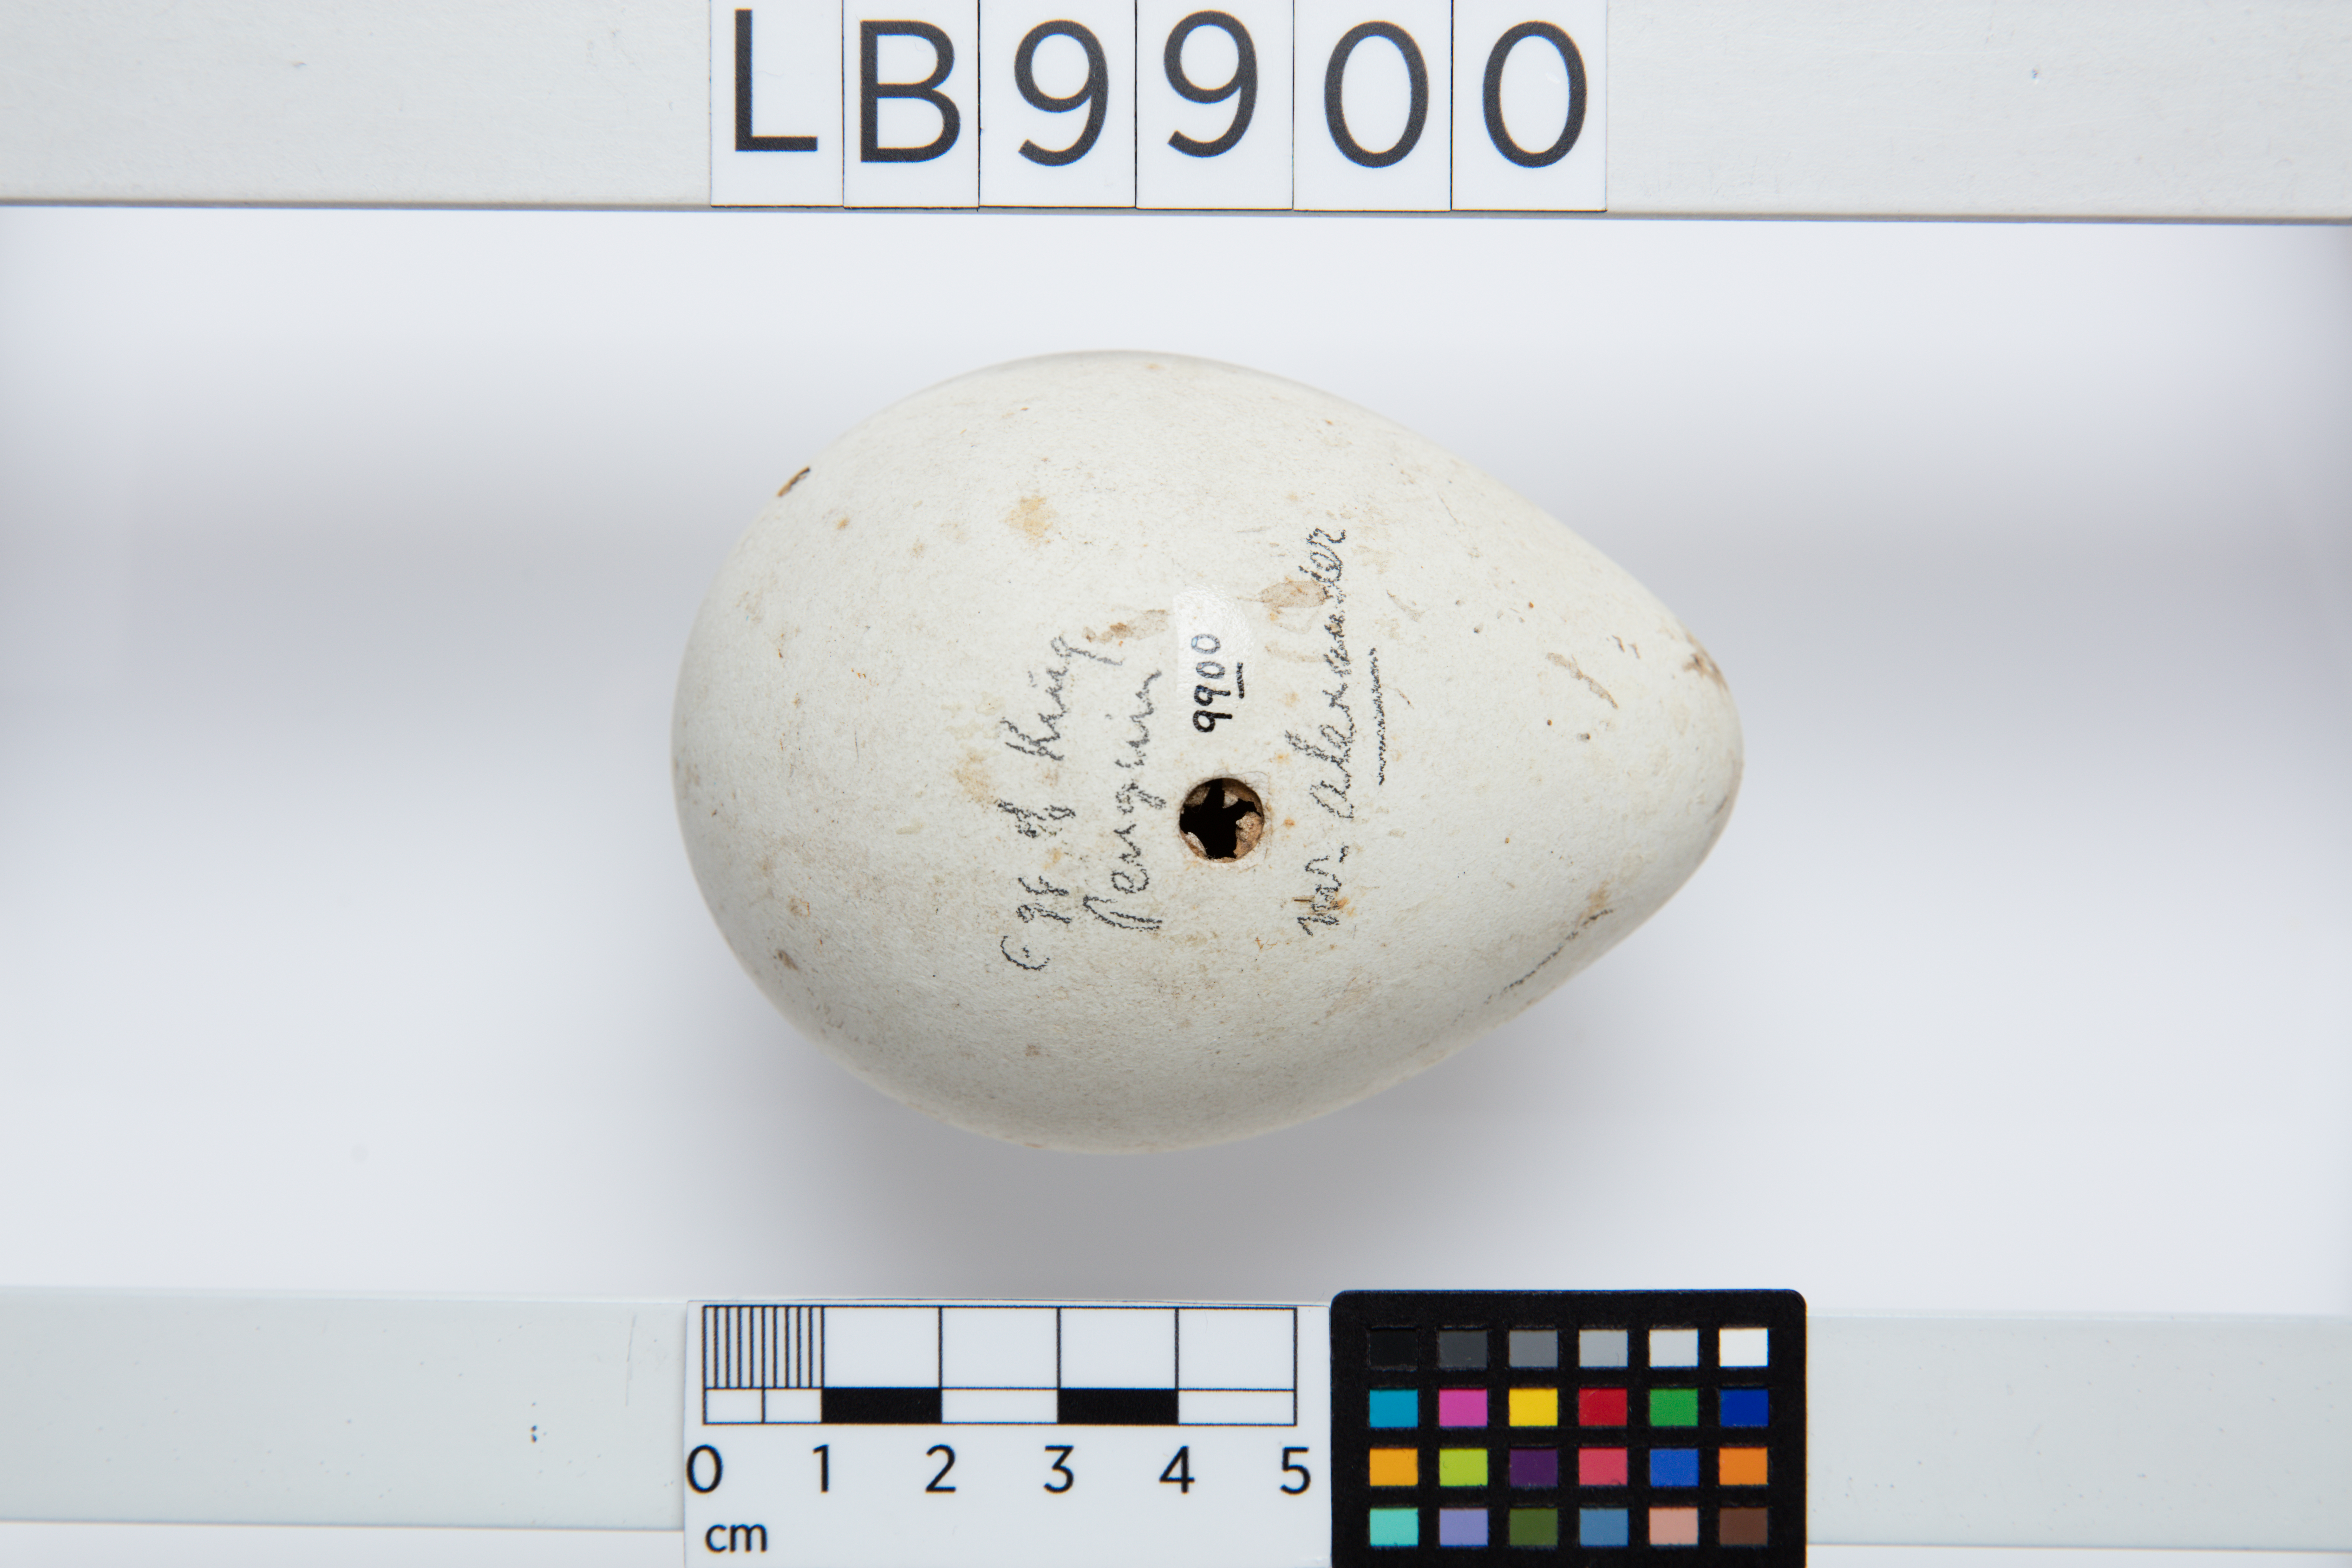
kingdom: Animalia
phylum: Chordata
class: Aves
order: Sphenisciformes
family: Spheniscidae
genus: Aptenodytes
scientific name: Aptenodytes patagonicus
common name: King penguin
